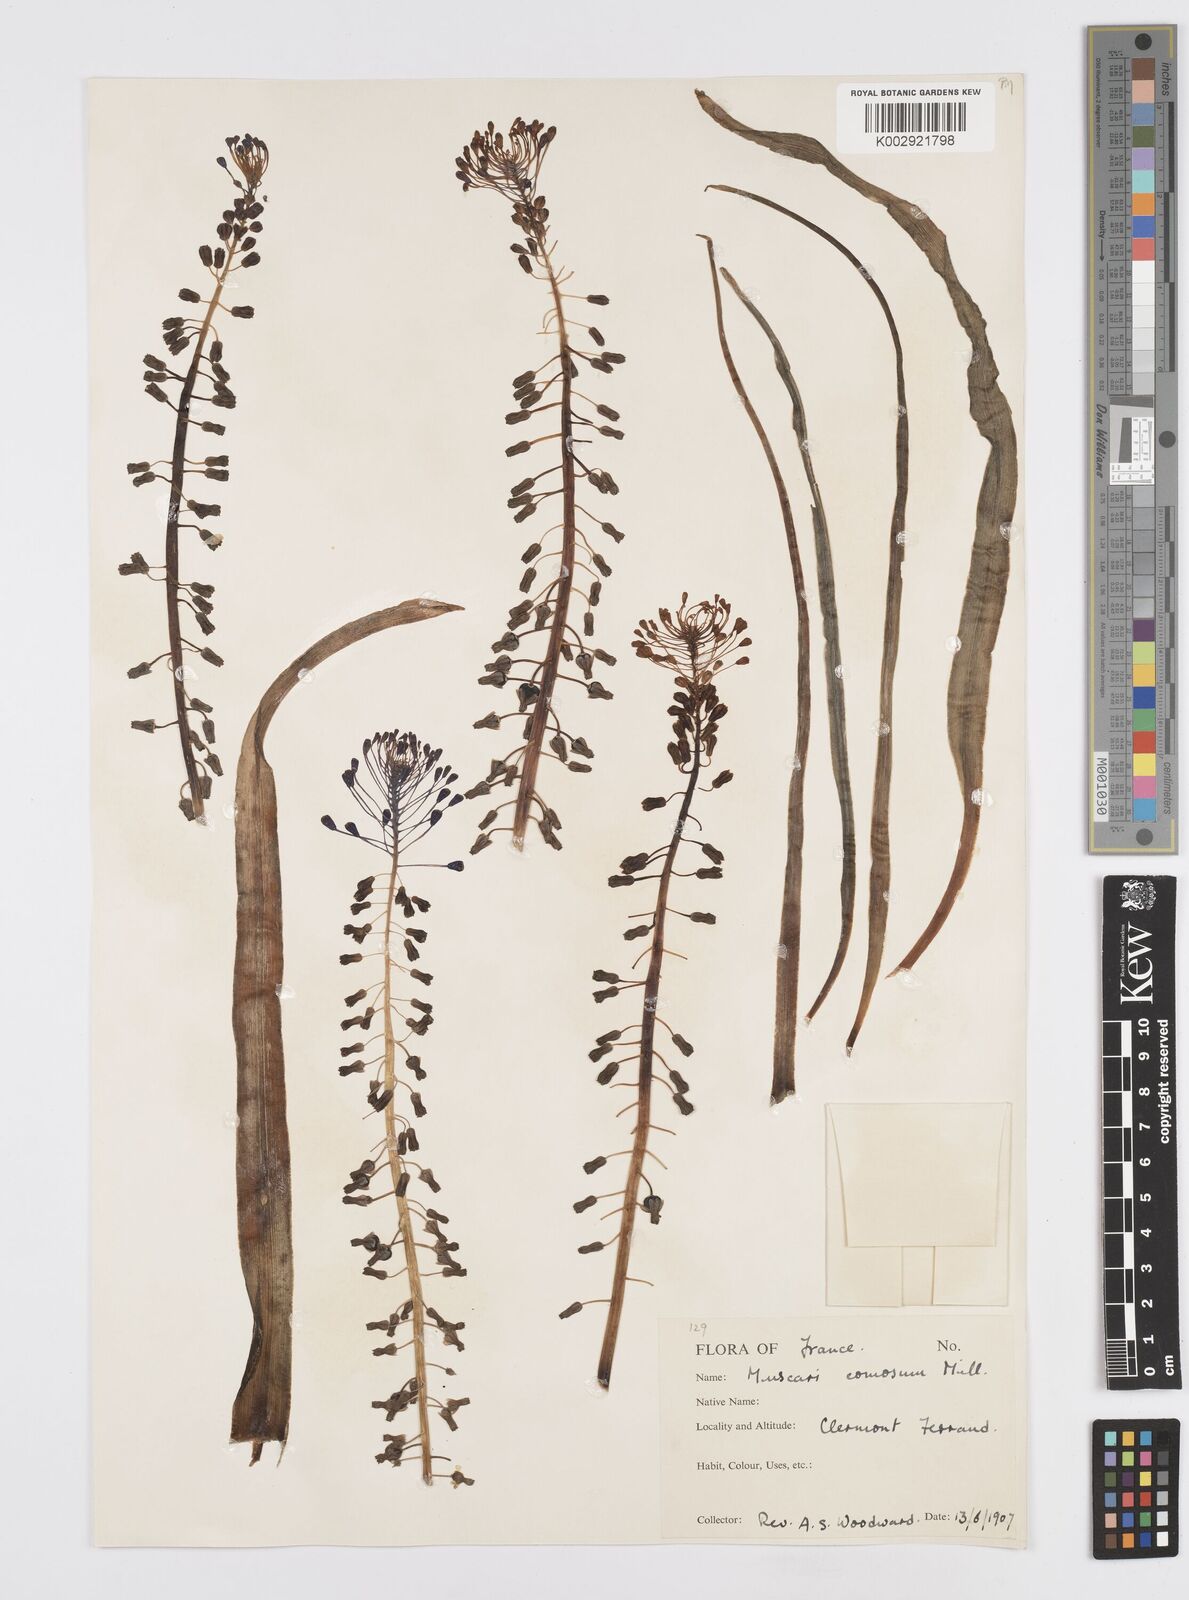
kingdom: Plantae
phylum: Tracheophyta
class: Liliopsida
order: Asparagales
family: Asparagaceae
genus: Muscari
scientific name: Muscari comosum
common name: Tassel hyacinth
